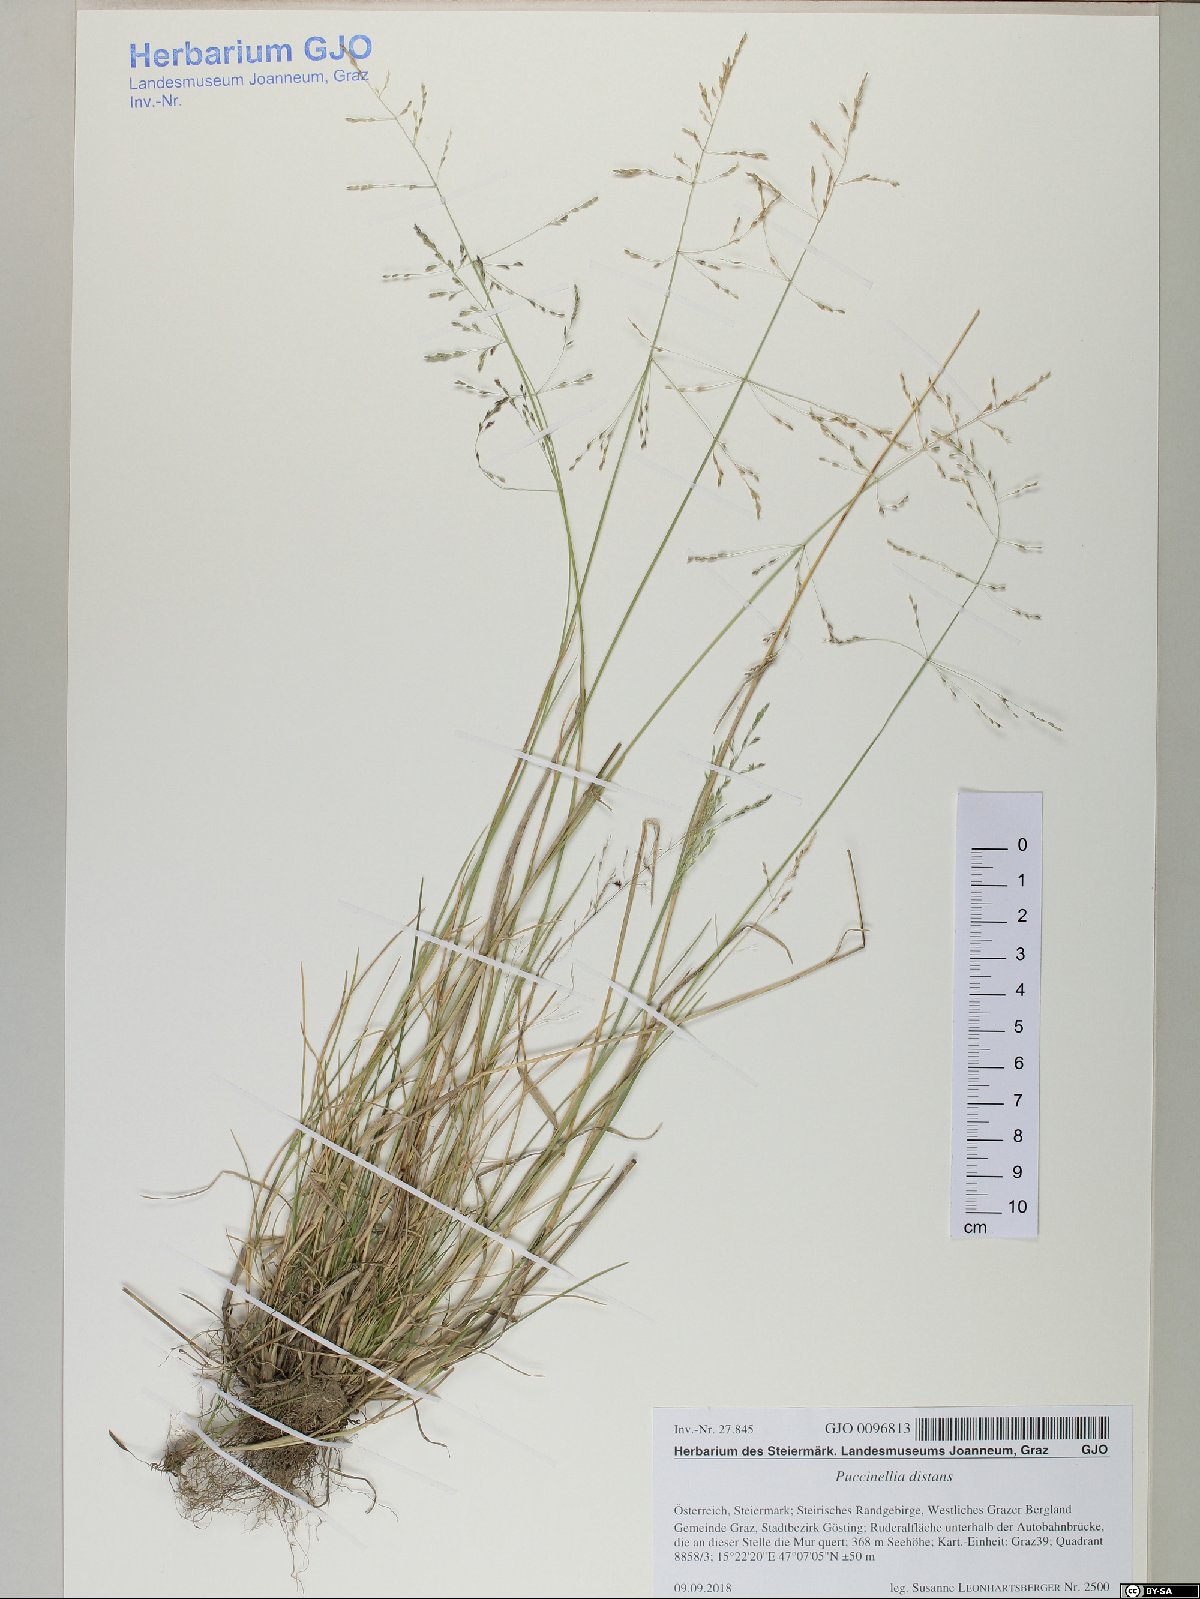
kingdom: Plantae
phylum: Tracheophyta
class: Liliopsida
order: Poales
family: Poaceae
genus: Puccinellia
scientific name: Puccinellia distans
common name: Weeping alkaligrass
